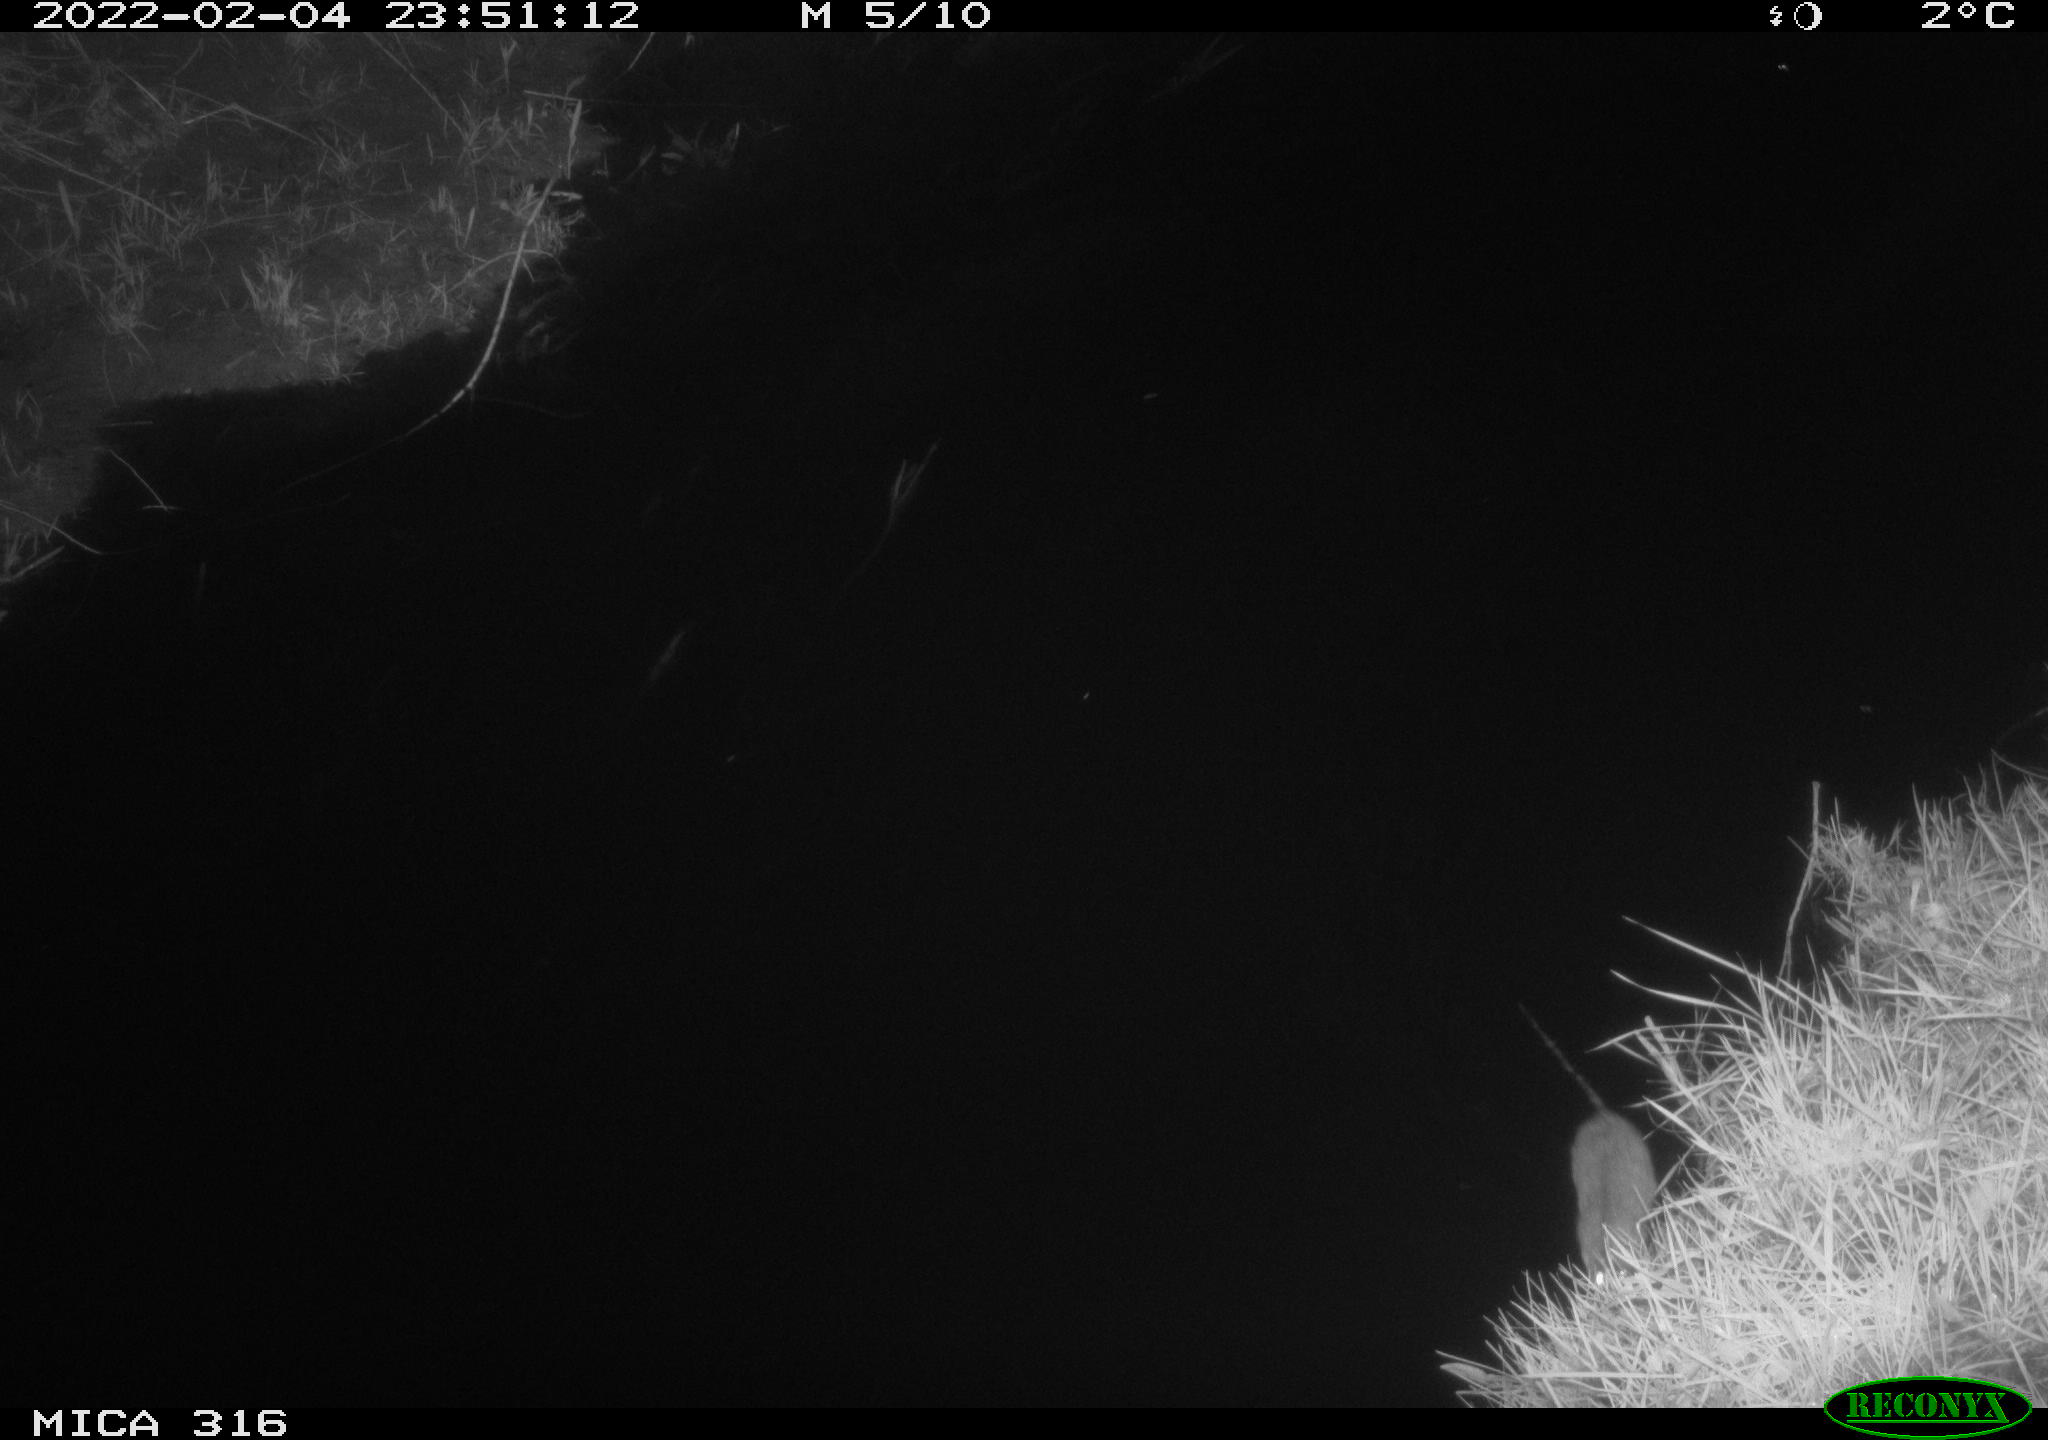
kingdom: Animalia
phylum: Chordata
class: Mammalia
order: Rodentia
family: Muridae
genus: Rattus
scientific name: Rattus norvegicus
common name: Brown rat
